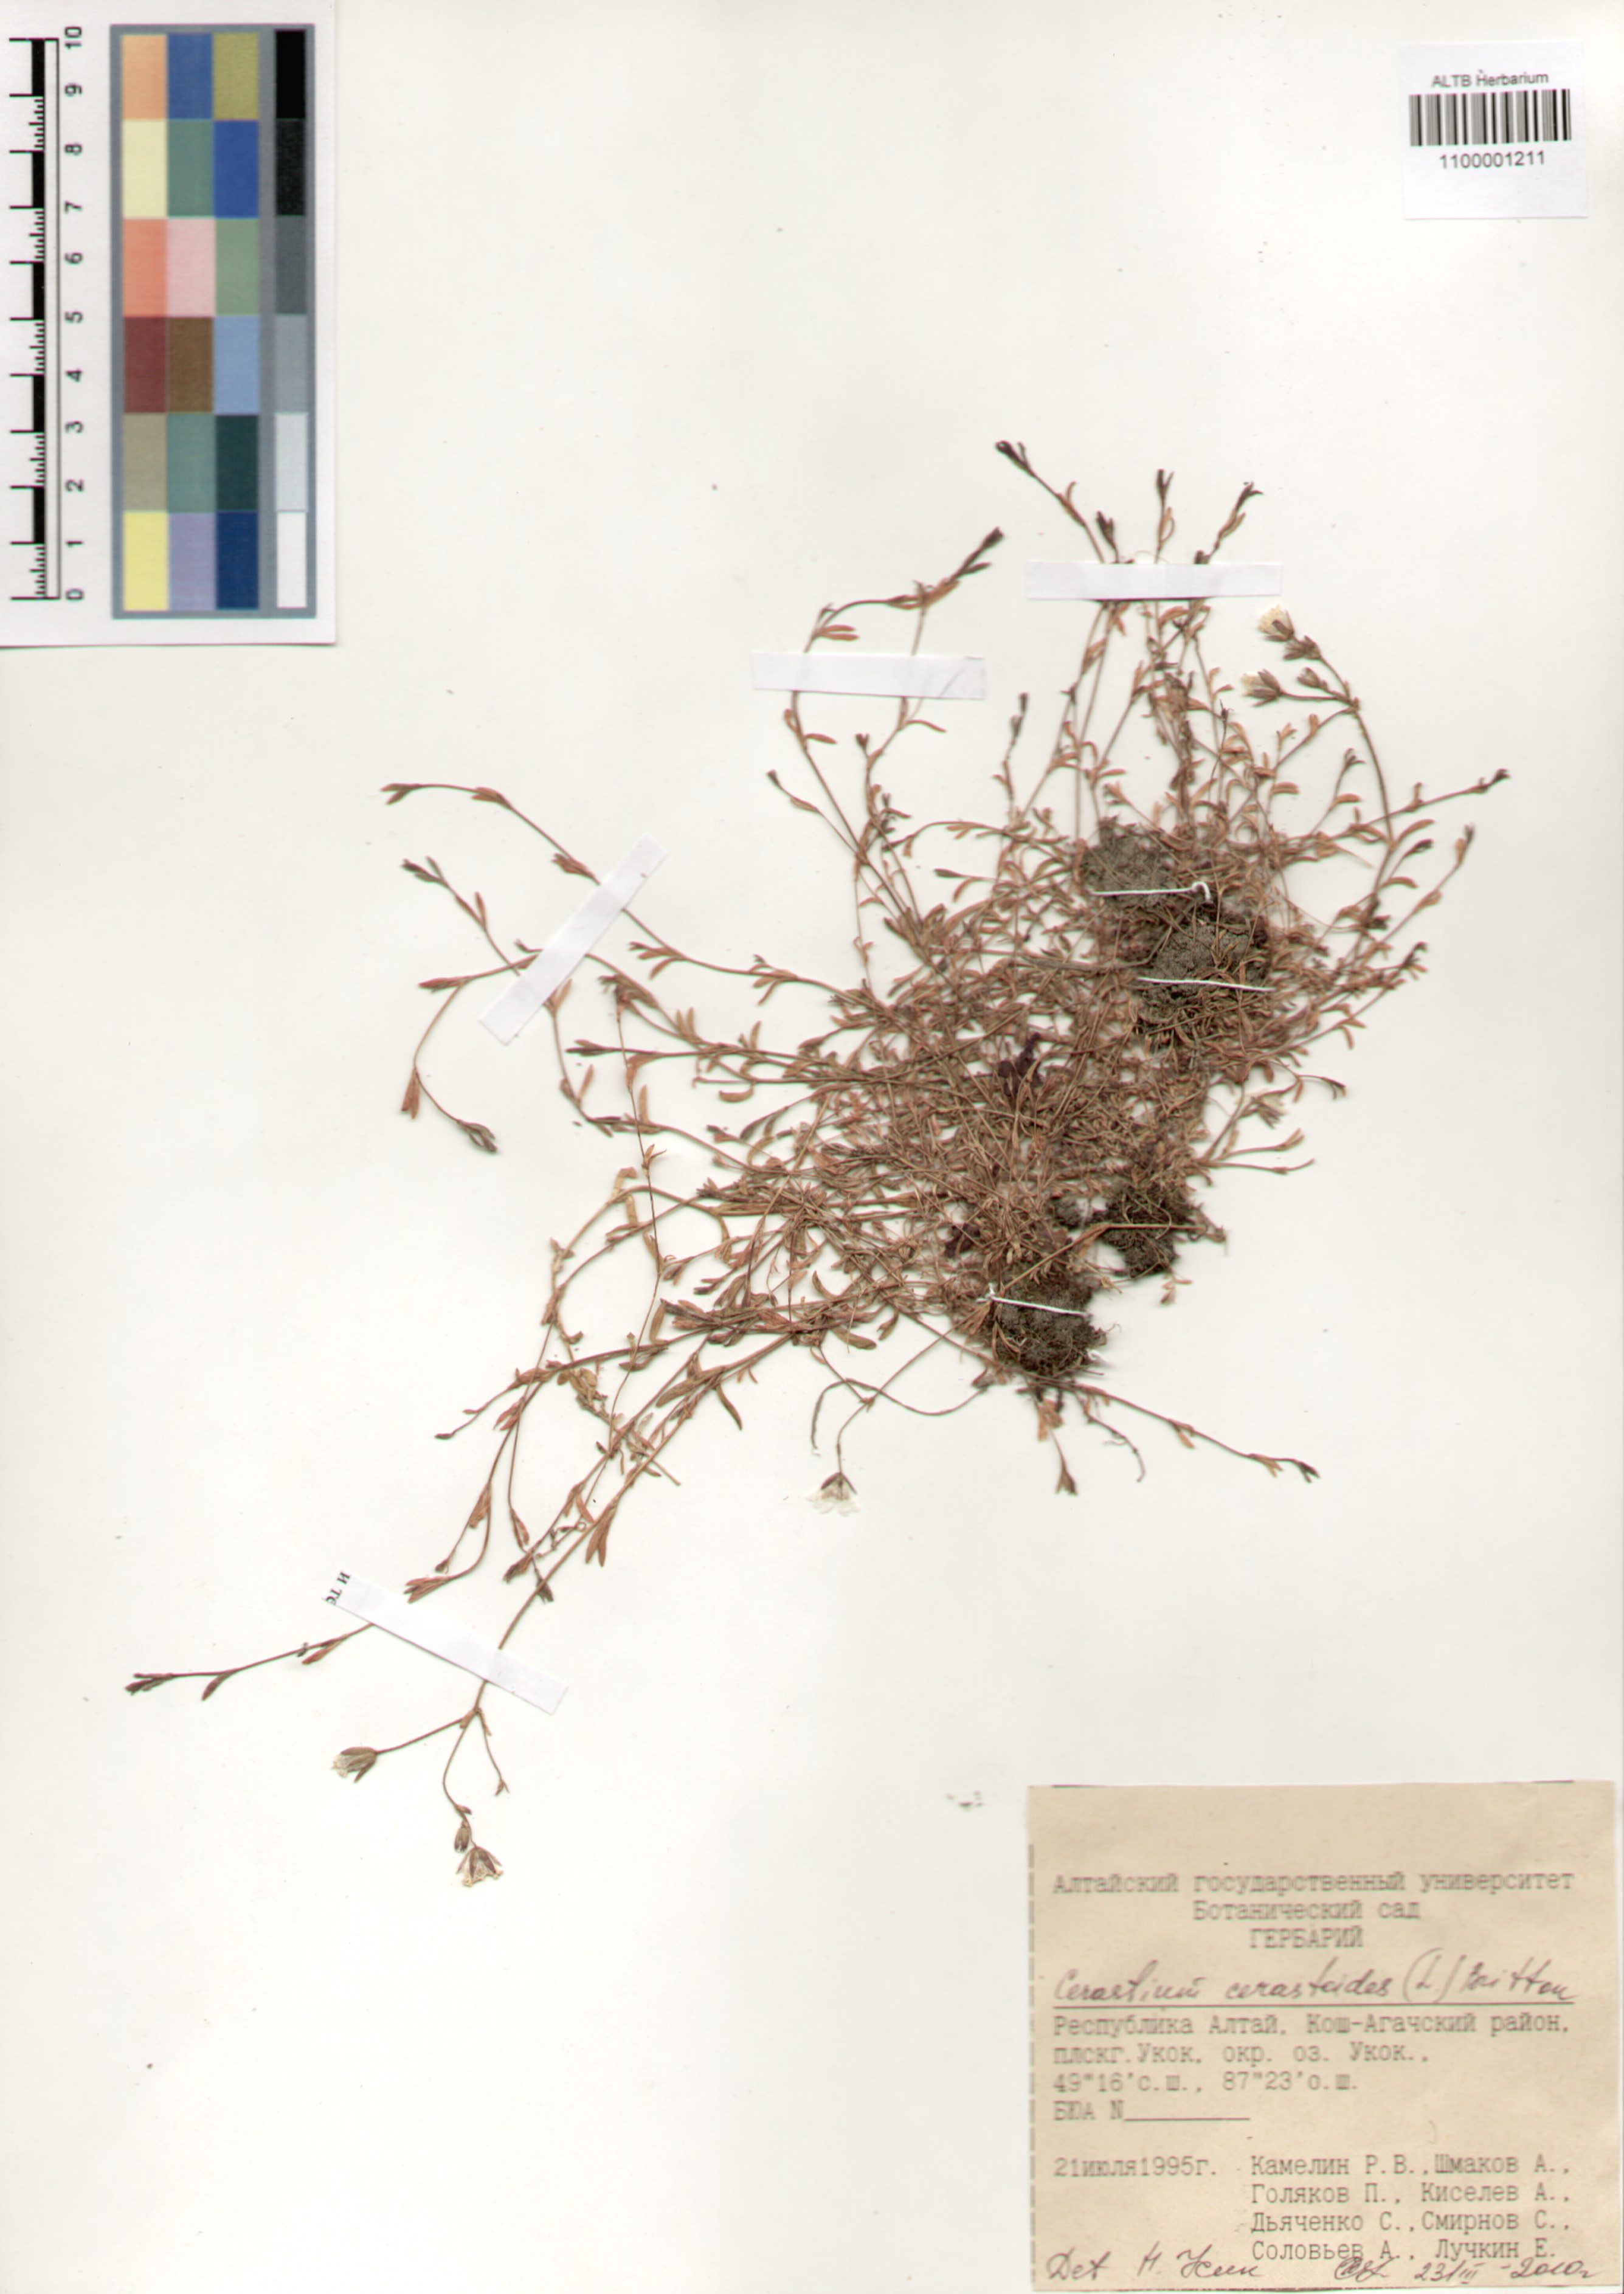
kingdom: Plantae
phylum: Tracheophyta
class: Magnoliopsida
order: Caryophyllales
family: Caryophyllaceae
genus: Dichodon
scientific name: Dichodon cerastoides
